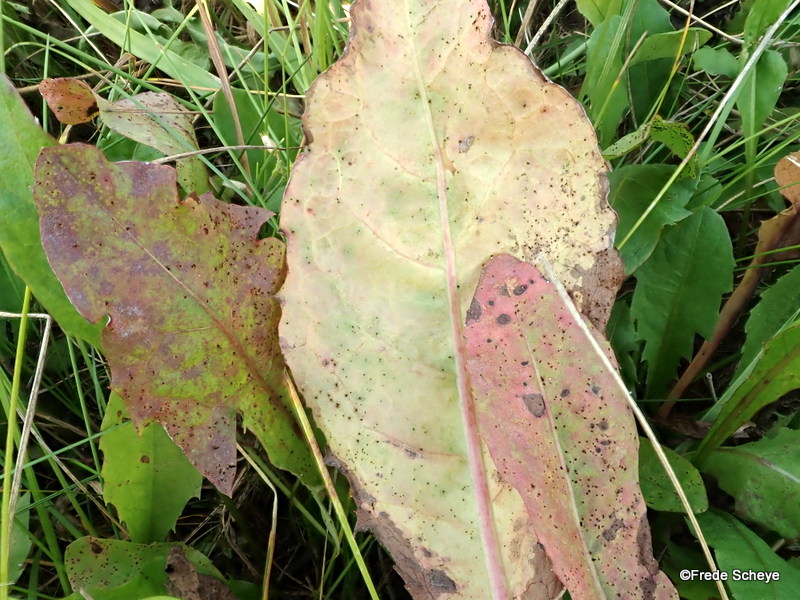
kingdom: Fungi
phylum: Basidiomycota
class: Pucciniomycetes
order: Pucciniales
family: Pucciniaceae
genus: Puccinia
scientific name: Puccinia variabilis
